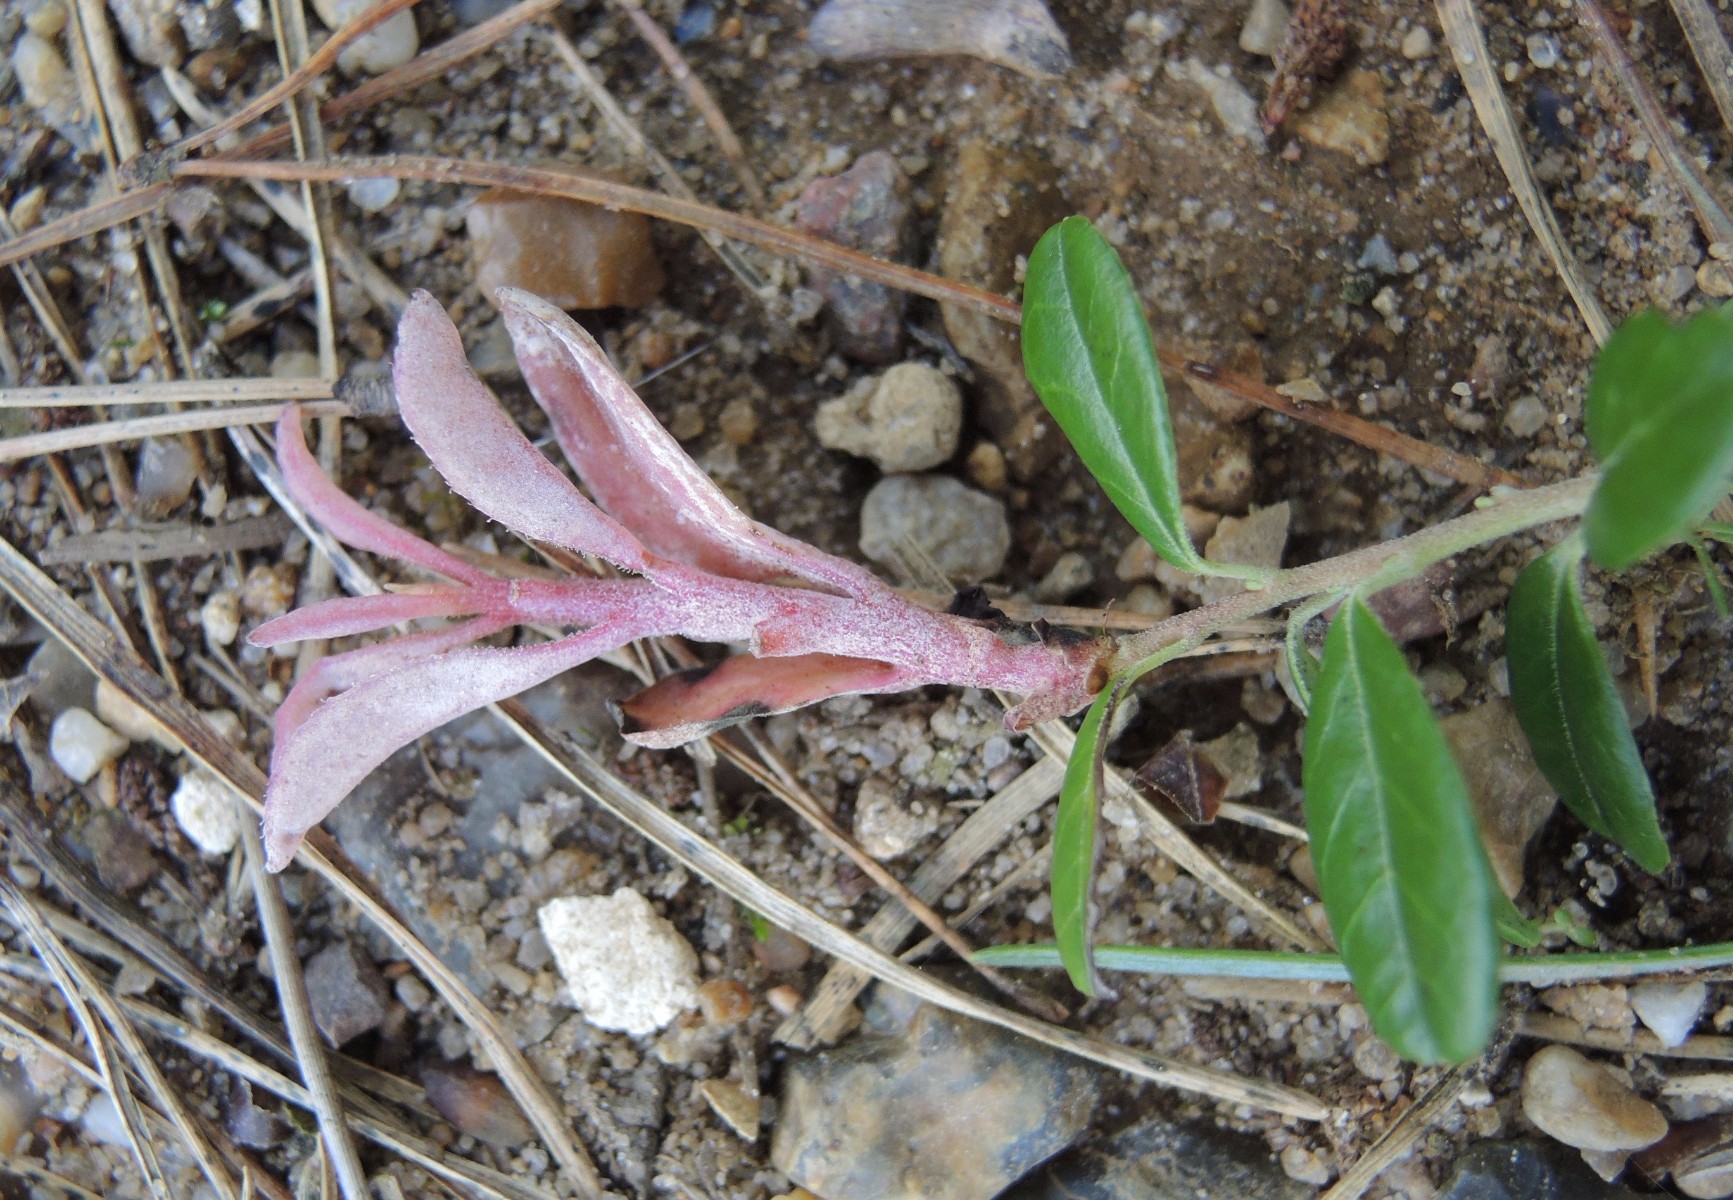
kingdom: Fungi
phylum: Basidiomycota
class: Exobasidiomycetes
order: Exobasidiales
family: Exobasidiaceae
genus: Exobasidium
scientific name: Exobasidium vaccinii
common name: tyttebærblad-bøllesvamp
